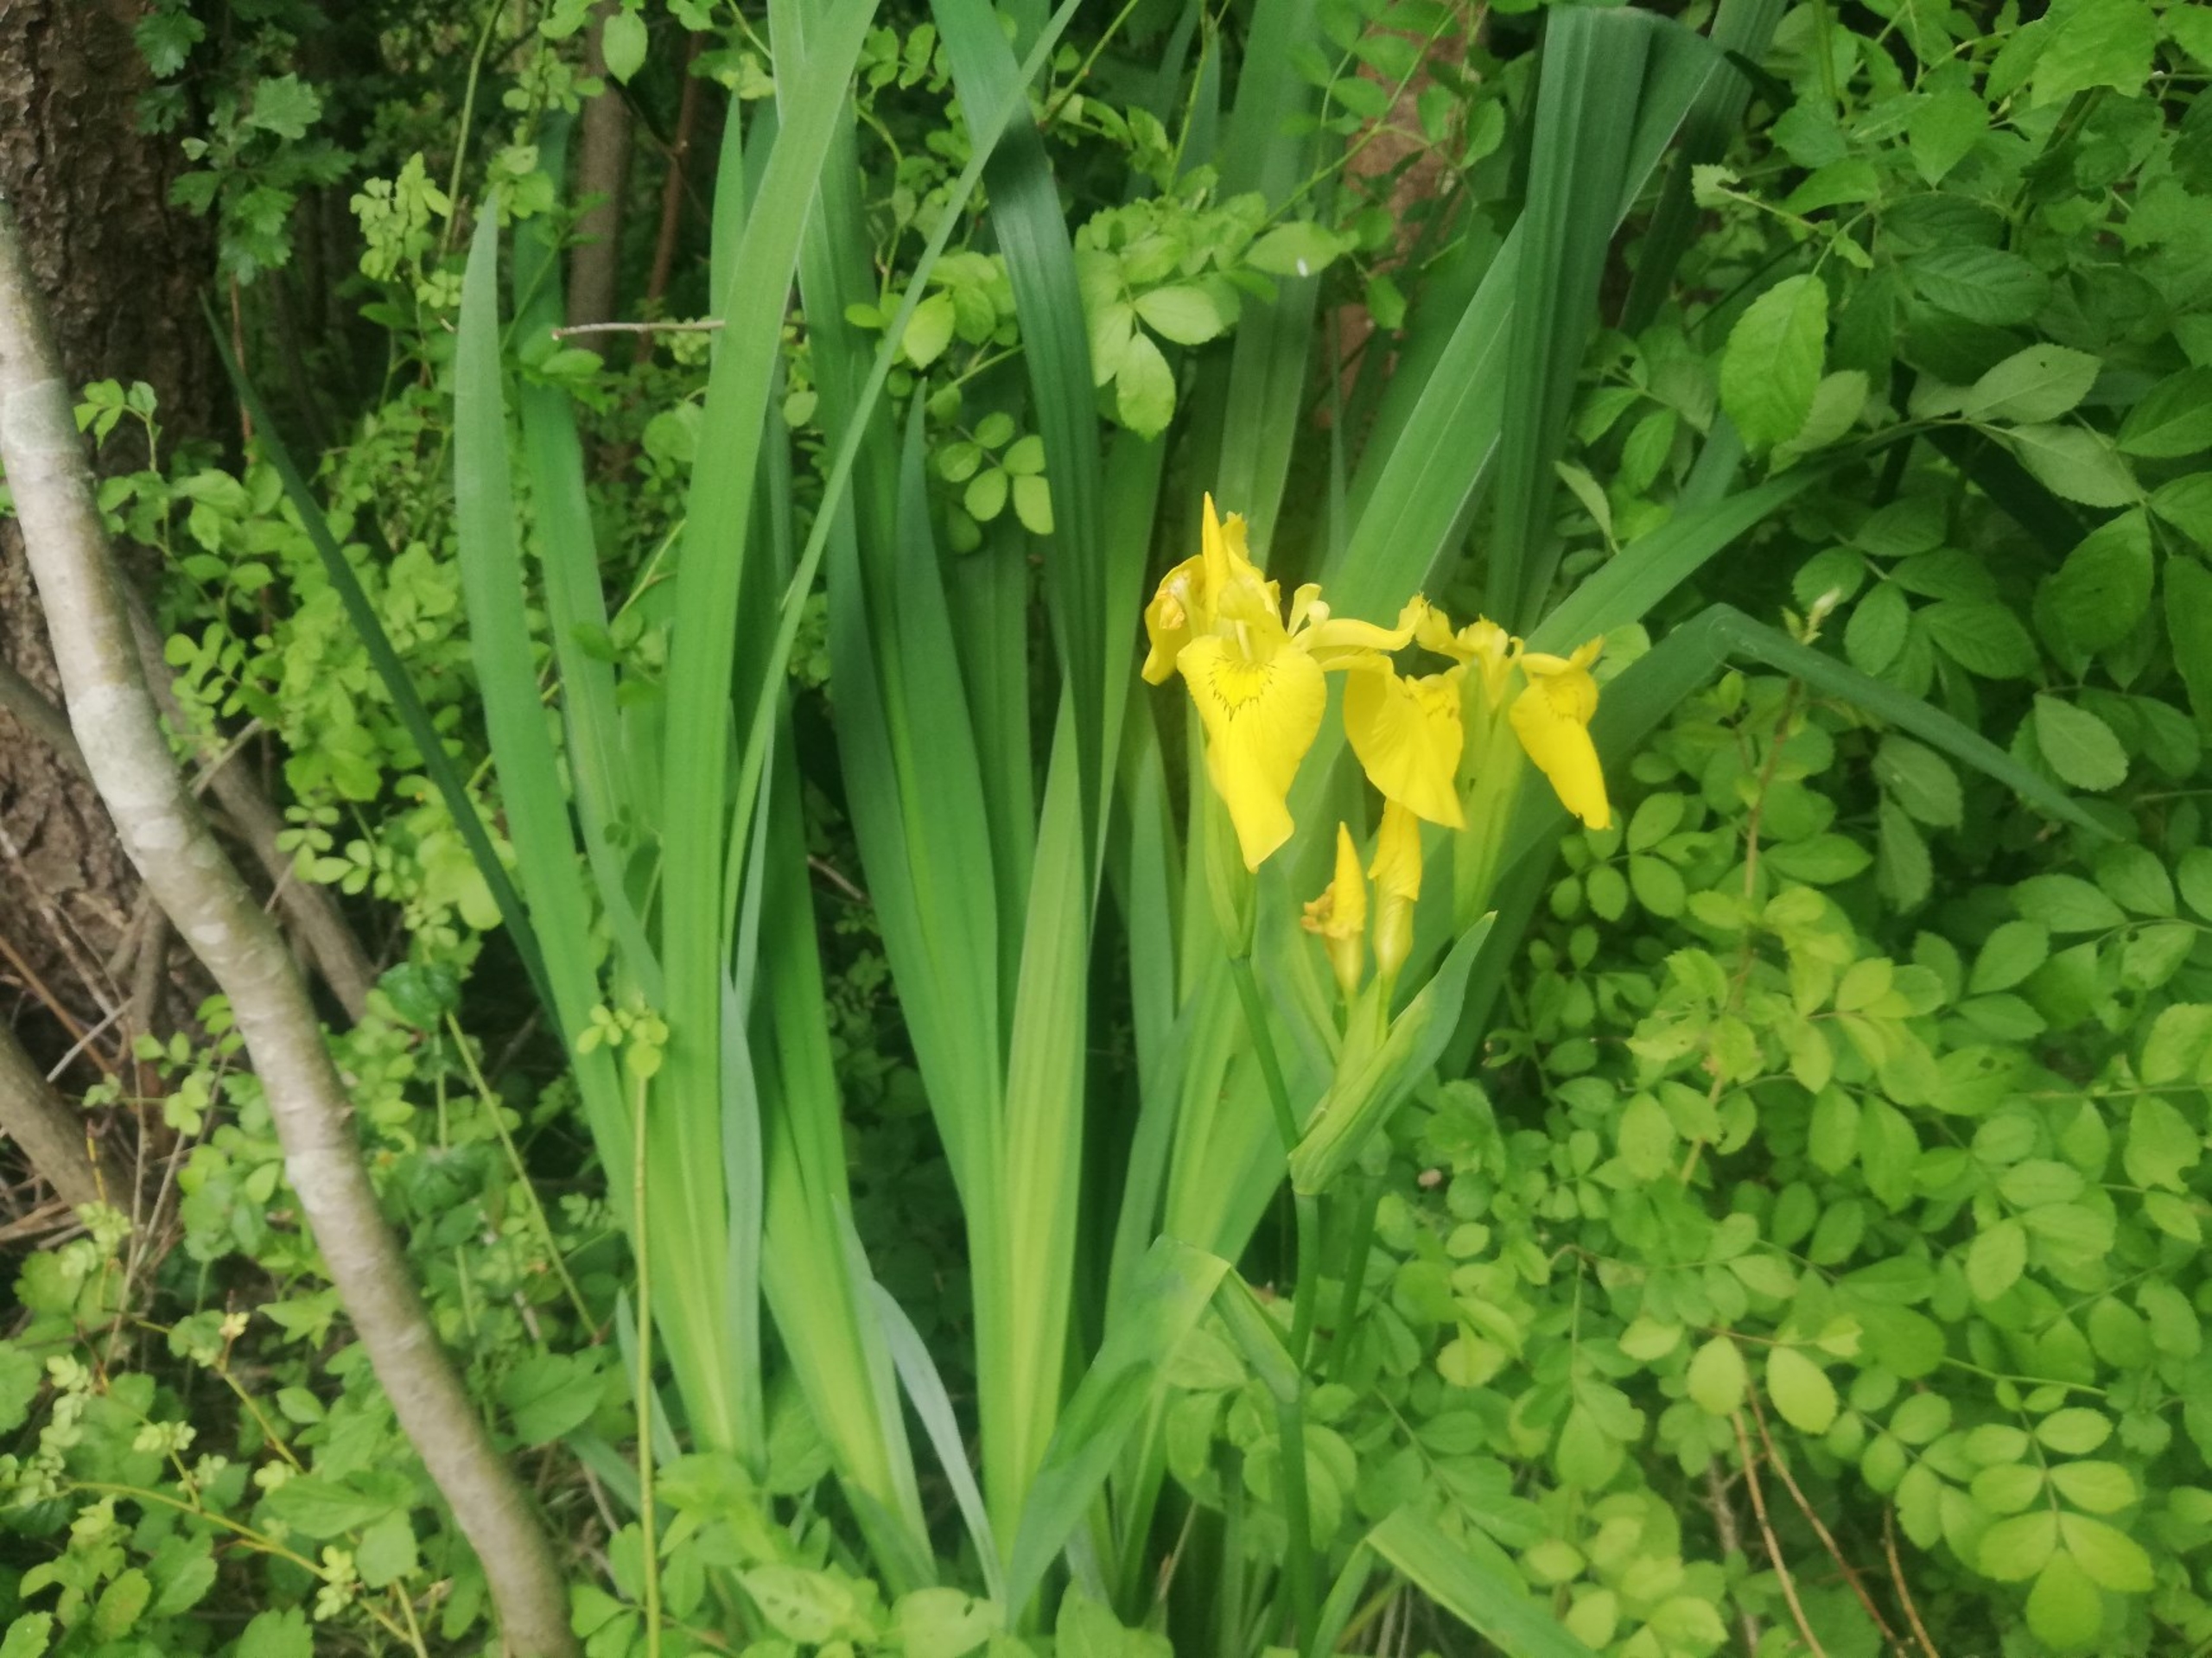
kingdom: Plantae
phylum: Tracheophyta
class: Liliopsida
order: Asparagales
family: Iridaceae
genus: Iris
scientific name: Iris pseudacorus
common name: Gul iris
